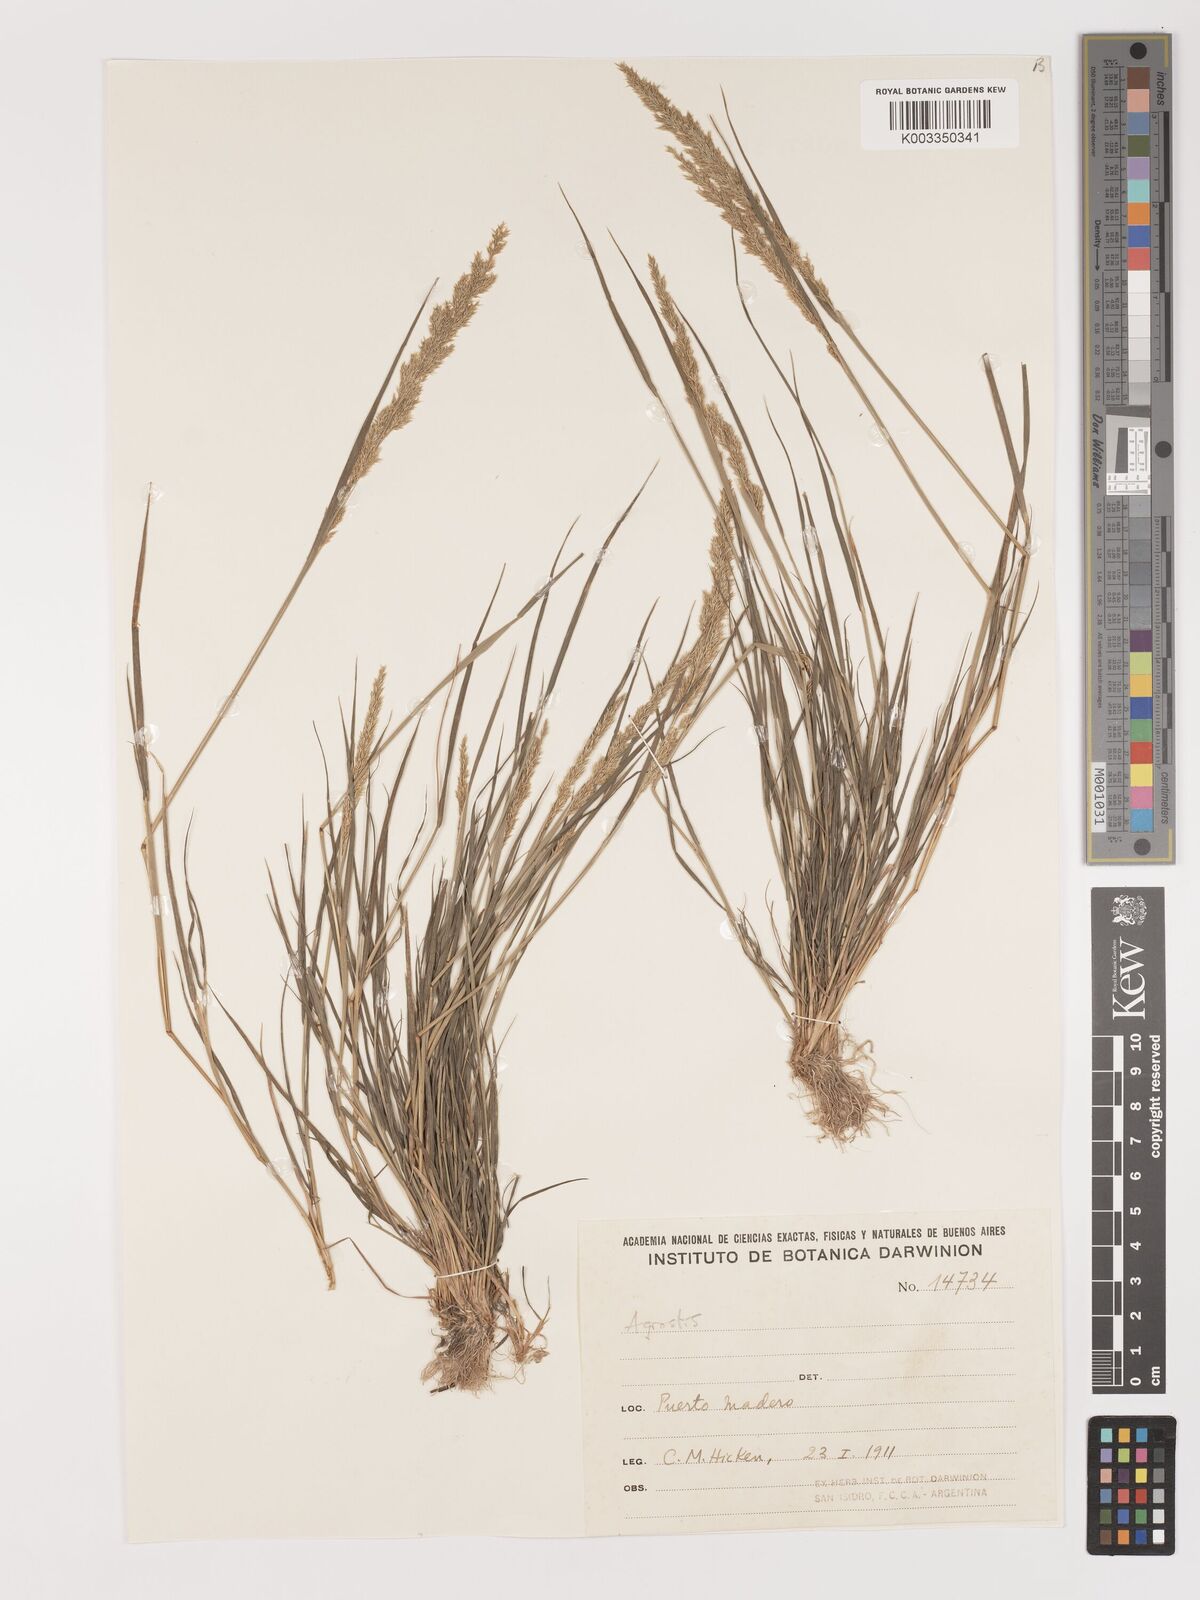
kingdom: Plantae
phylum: Tracheophyta
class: Liliopsida
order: Poales
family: Poaceae
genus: Agrostis
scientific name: Agrostis
